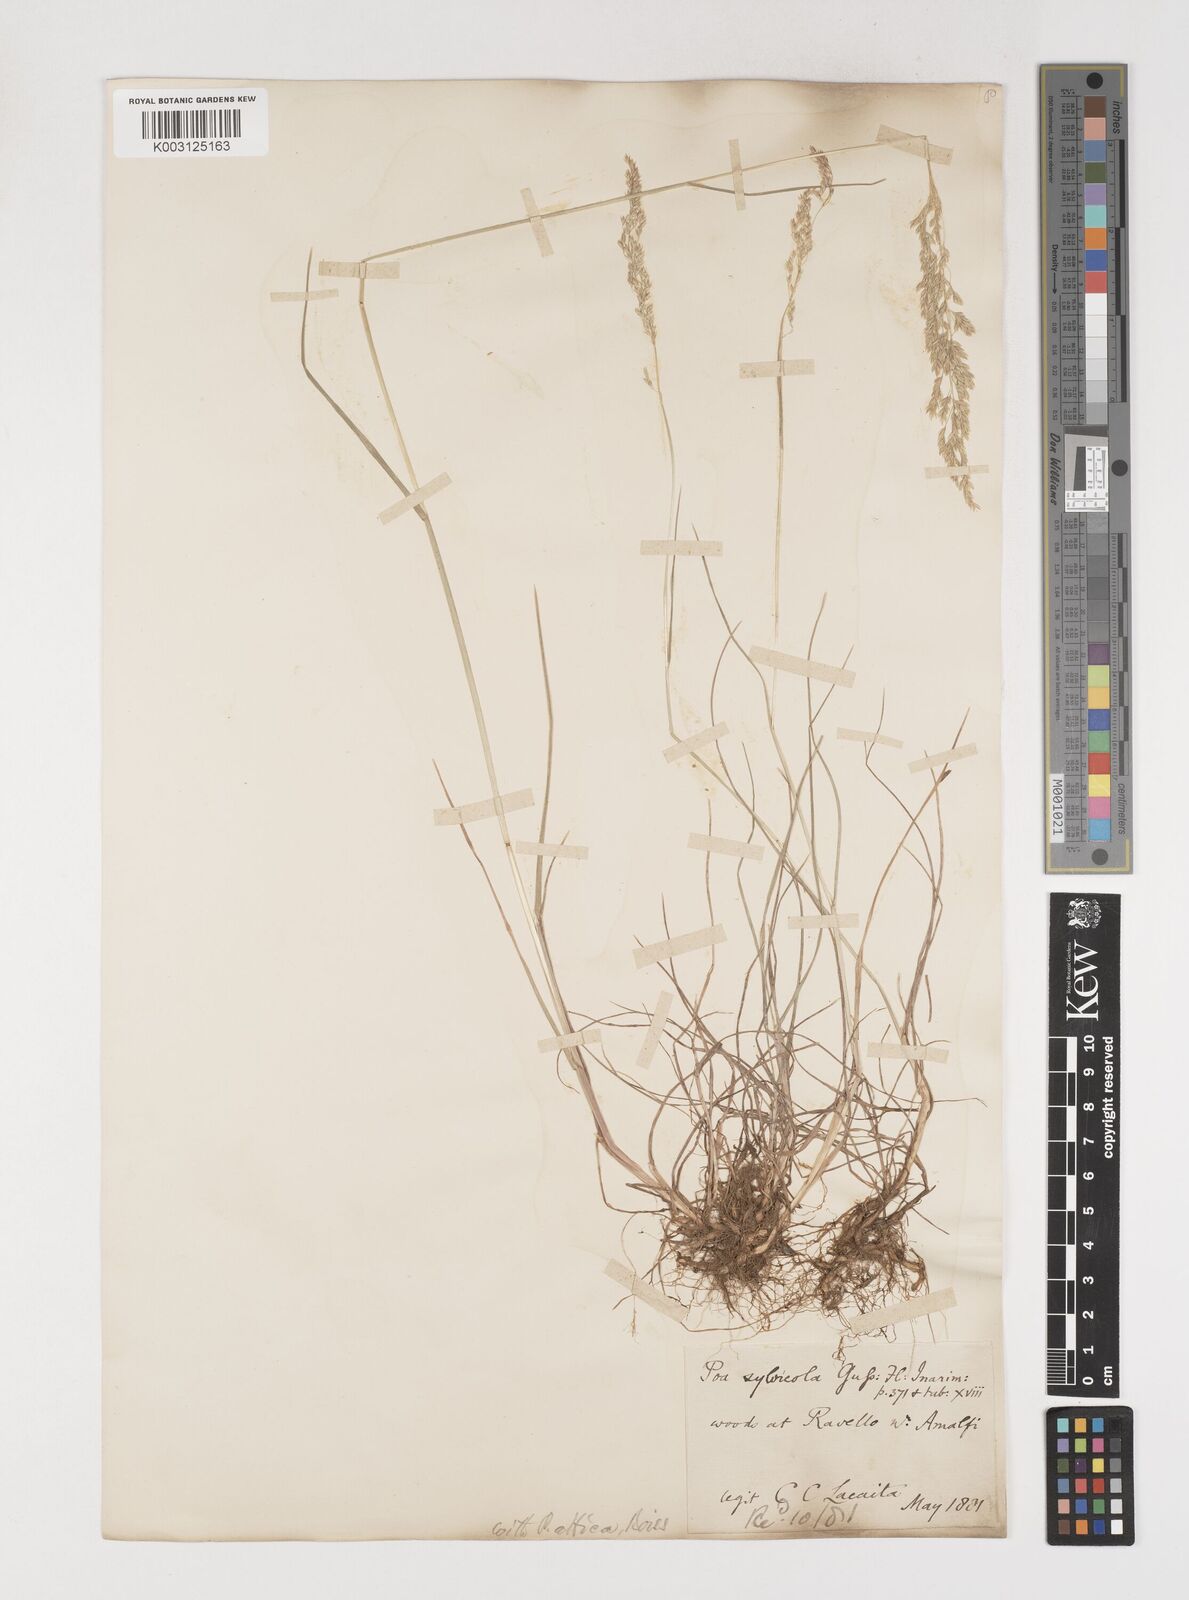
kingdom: Plantae
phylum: Tracheophyta
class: Liliopsida
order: Poales
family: Poaceae
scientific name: Poaceae
